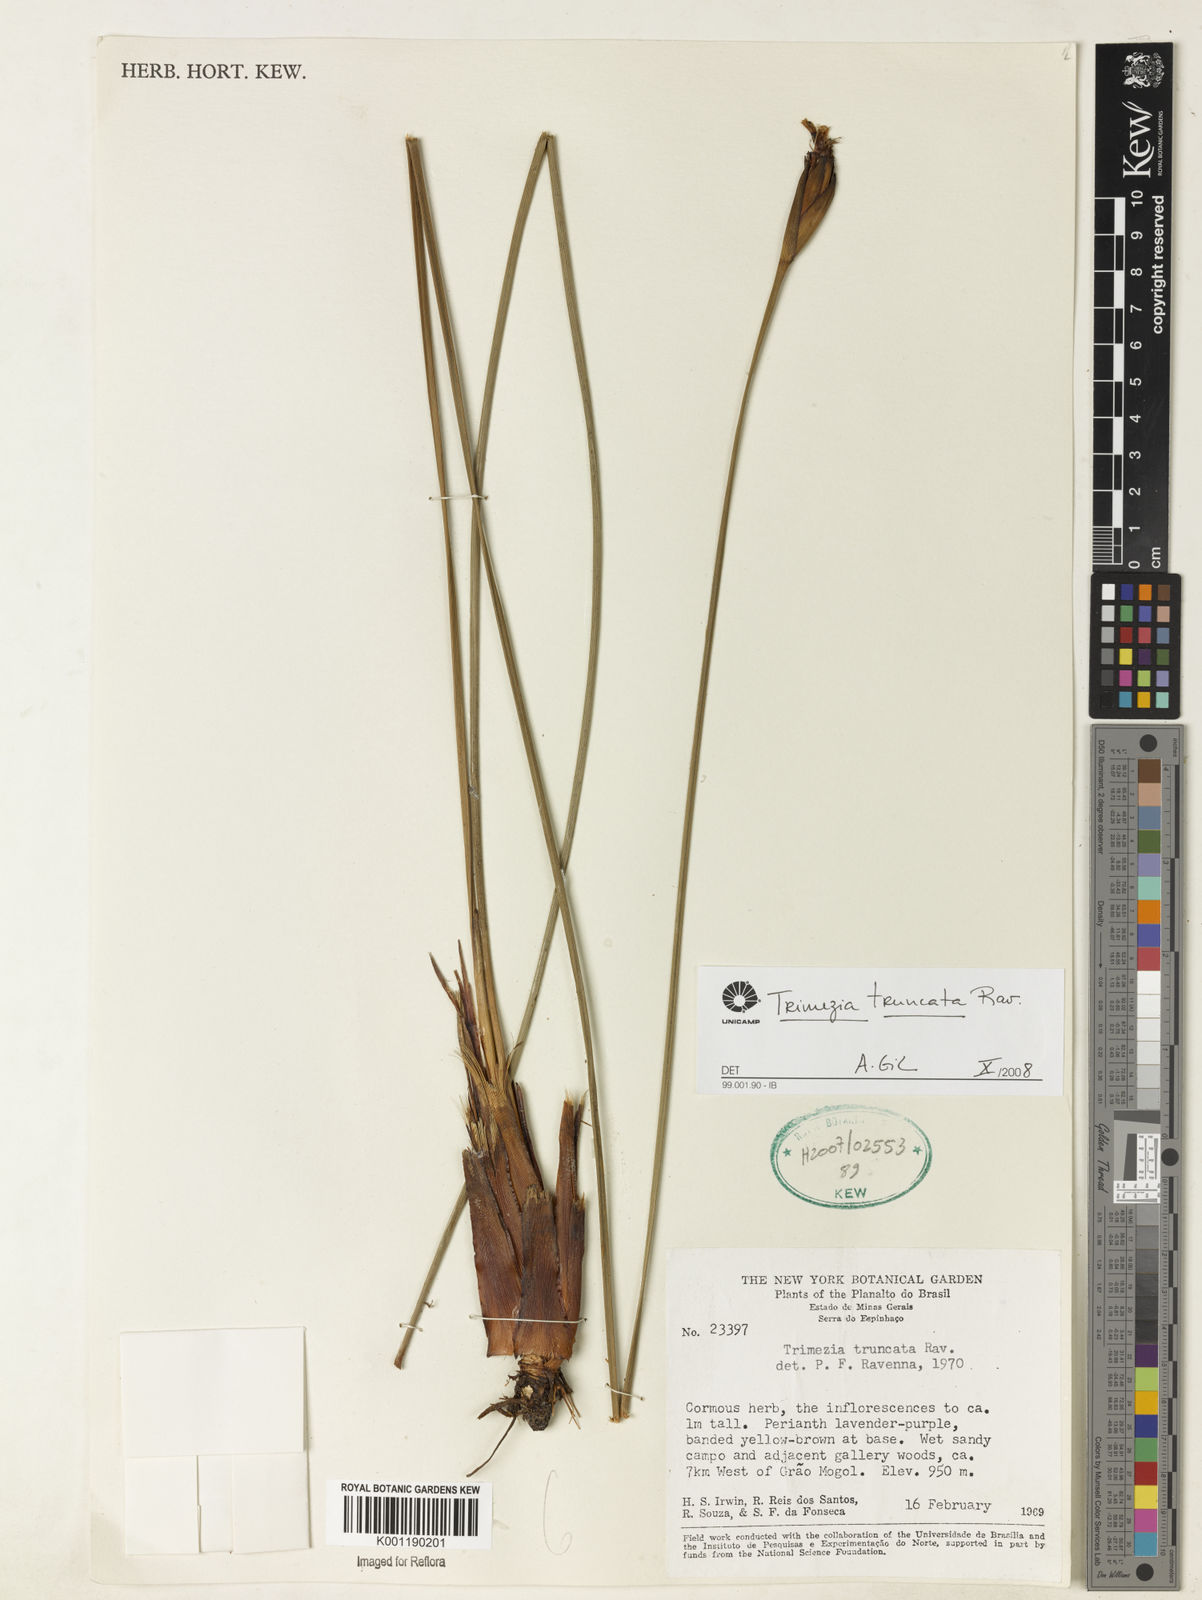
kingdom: Plantae
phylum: Tracheophyta
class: Liliopsida
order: Asparagales
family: Iridaceae
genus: Trimezia
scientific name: Trimezia truncata
